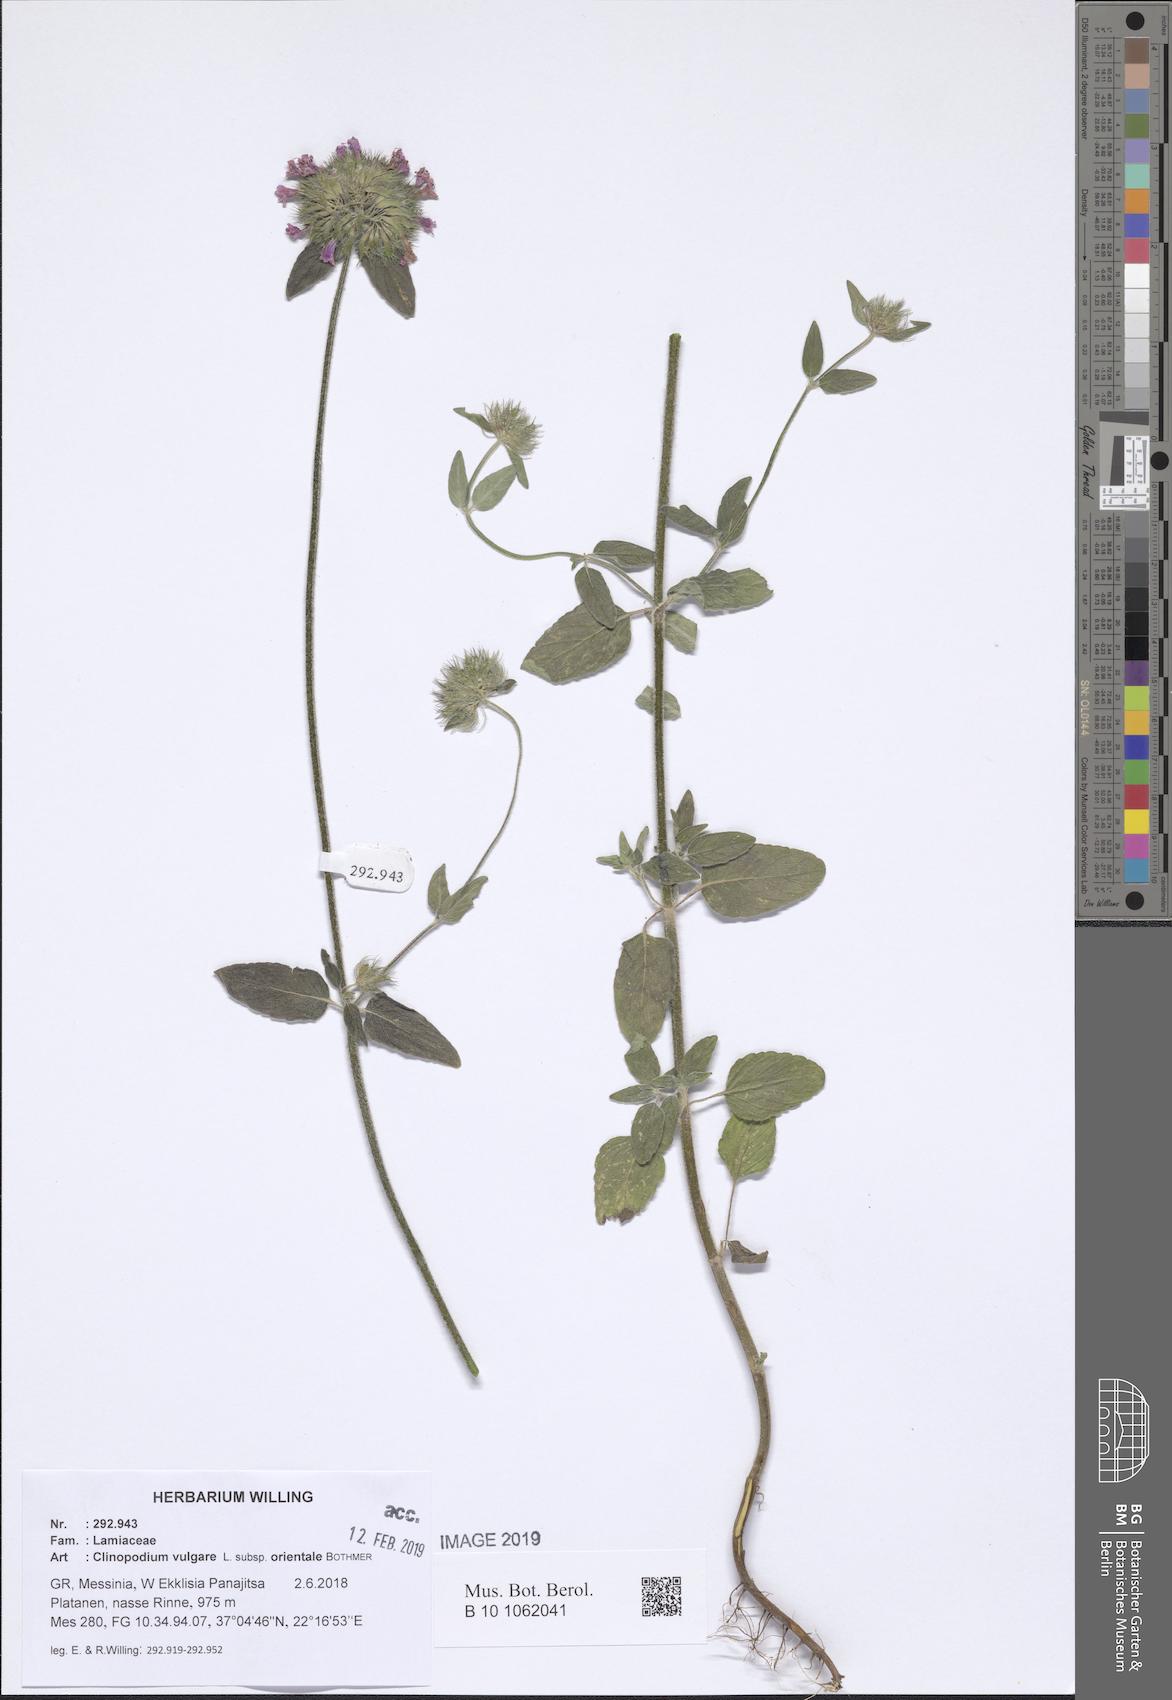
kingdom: Plantae
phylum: Tracheophyta
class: Magnoliopsida
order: Lamiales
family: Lamiaceae
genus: Clinopodium
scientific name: Clinopodium vulgare
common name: Wild basil
